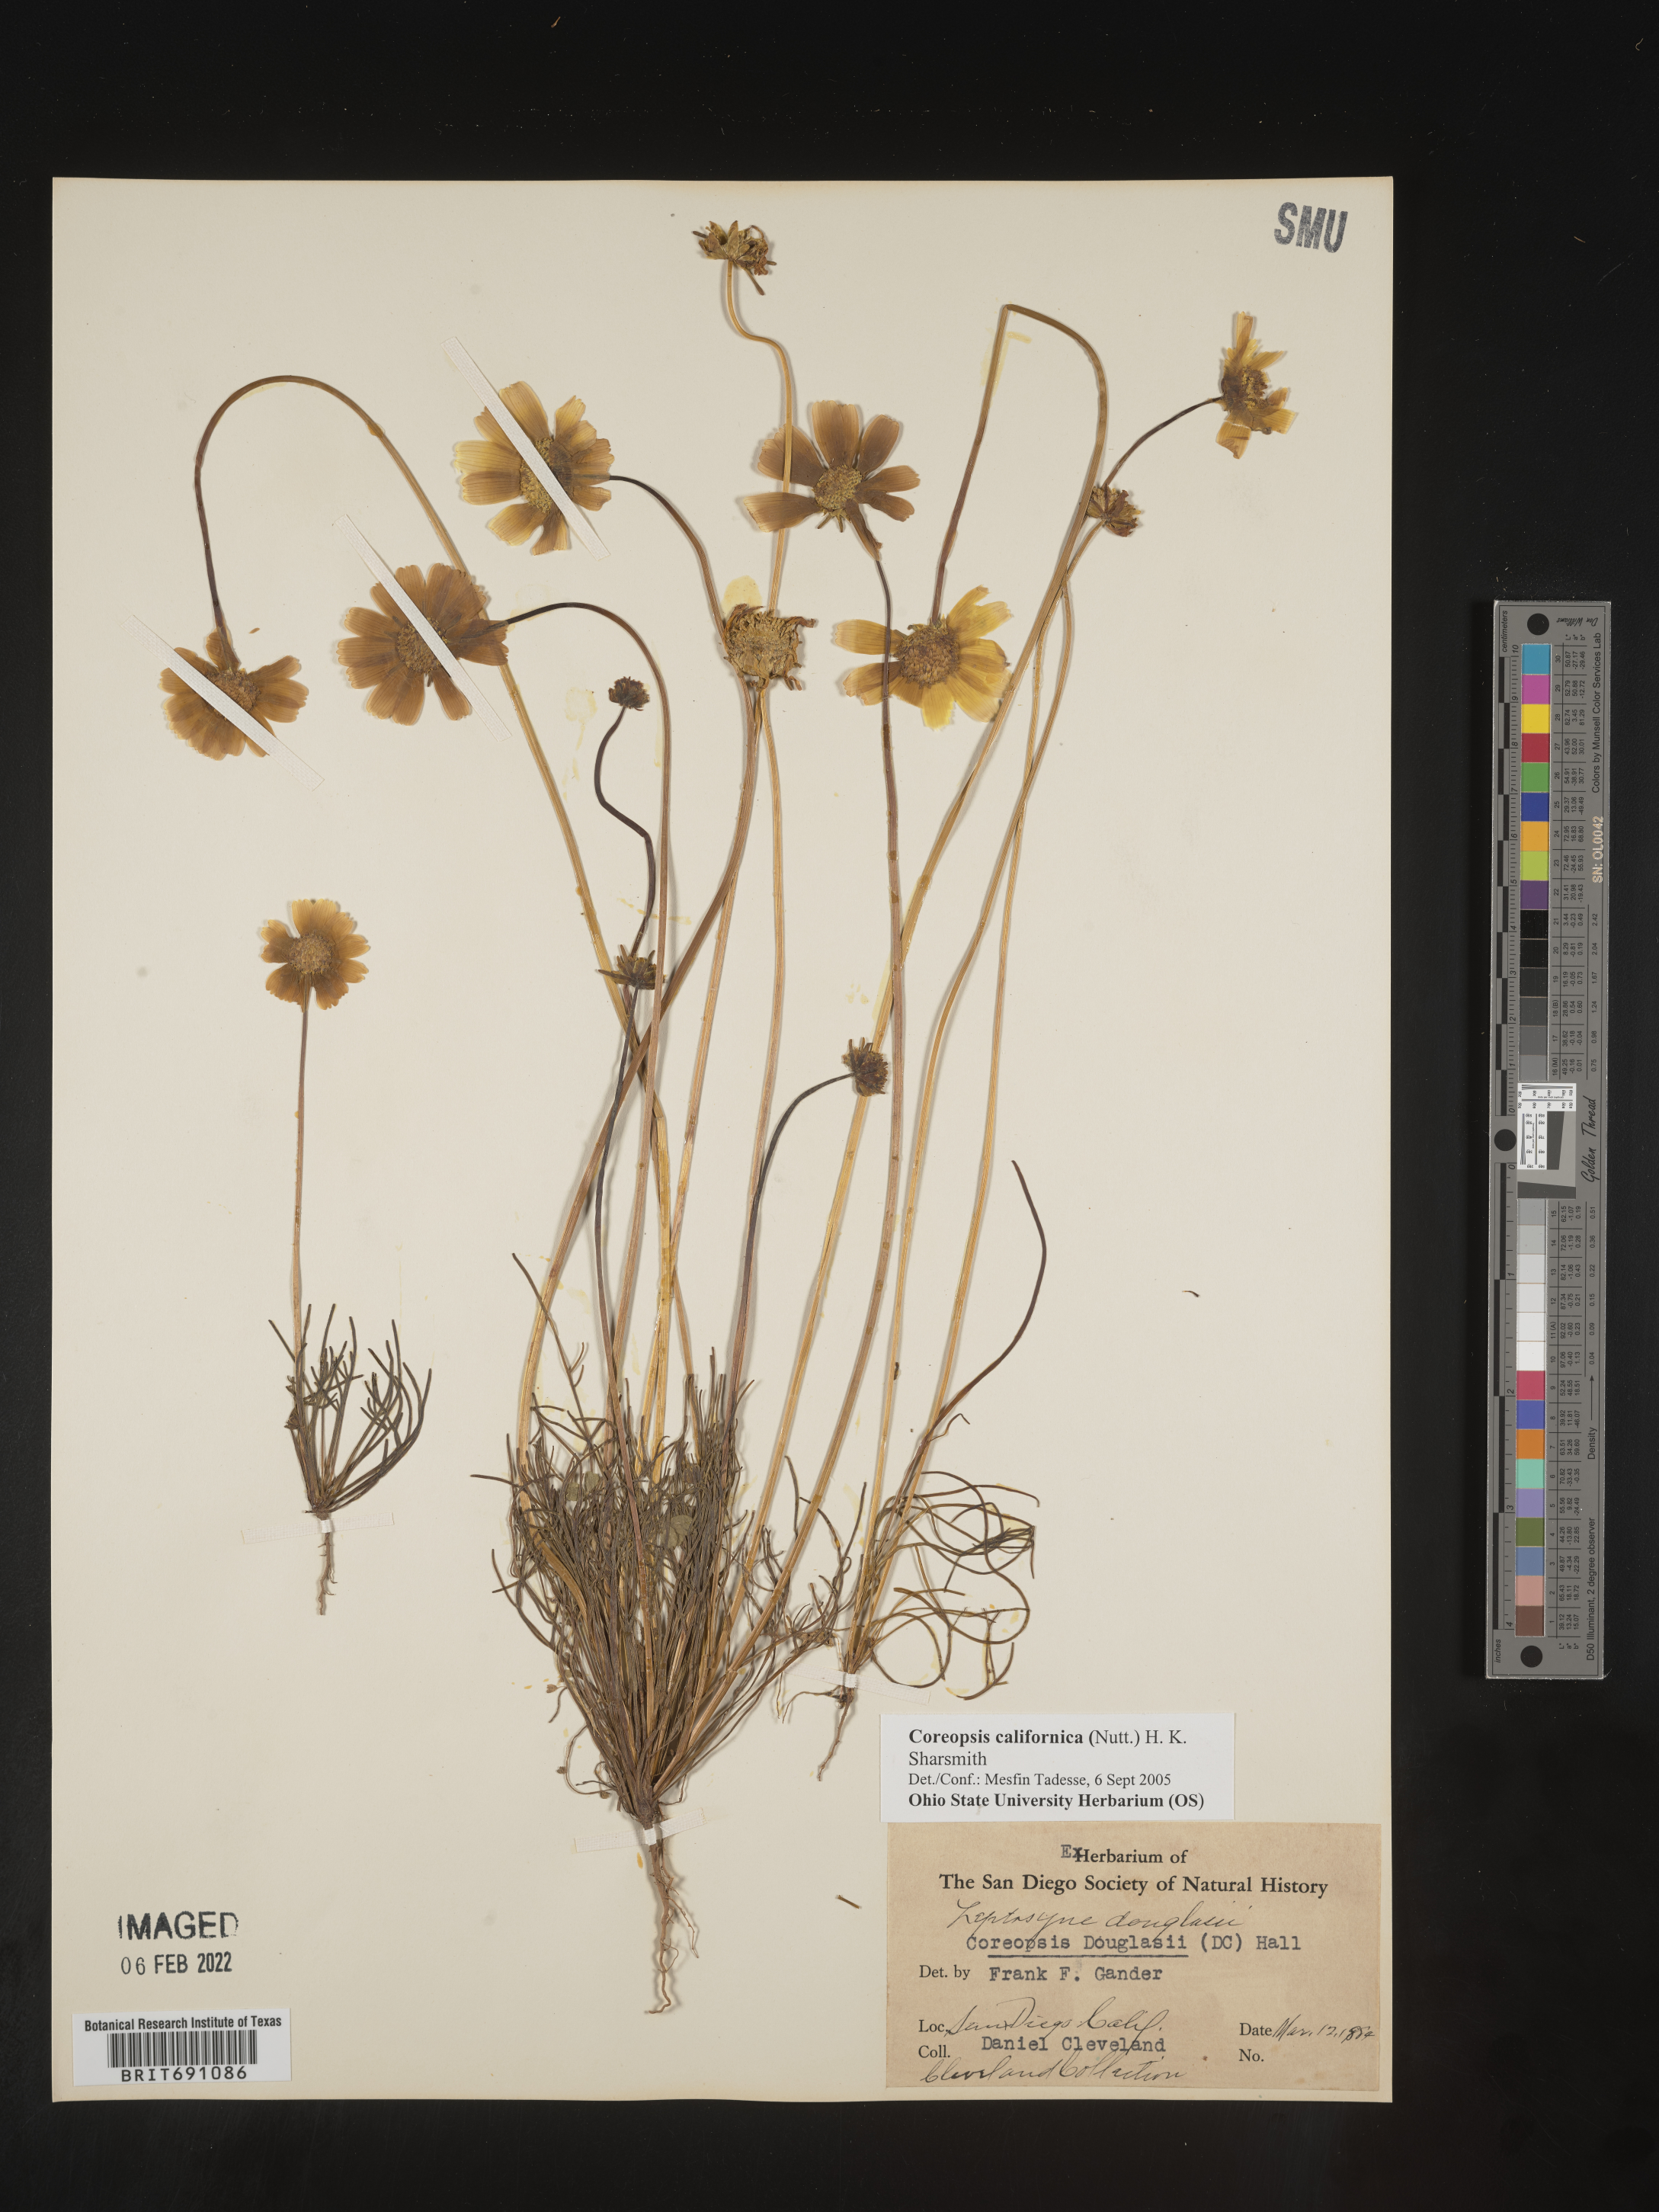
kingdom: Plantae
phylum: Tracheophyta
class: Magnoliopsida
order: Asterales
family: Asteraceae
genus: Coreopsis
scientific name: Coreopsis californica
